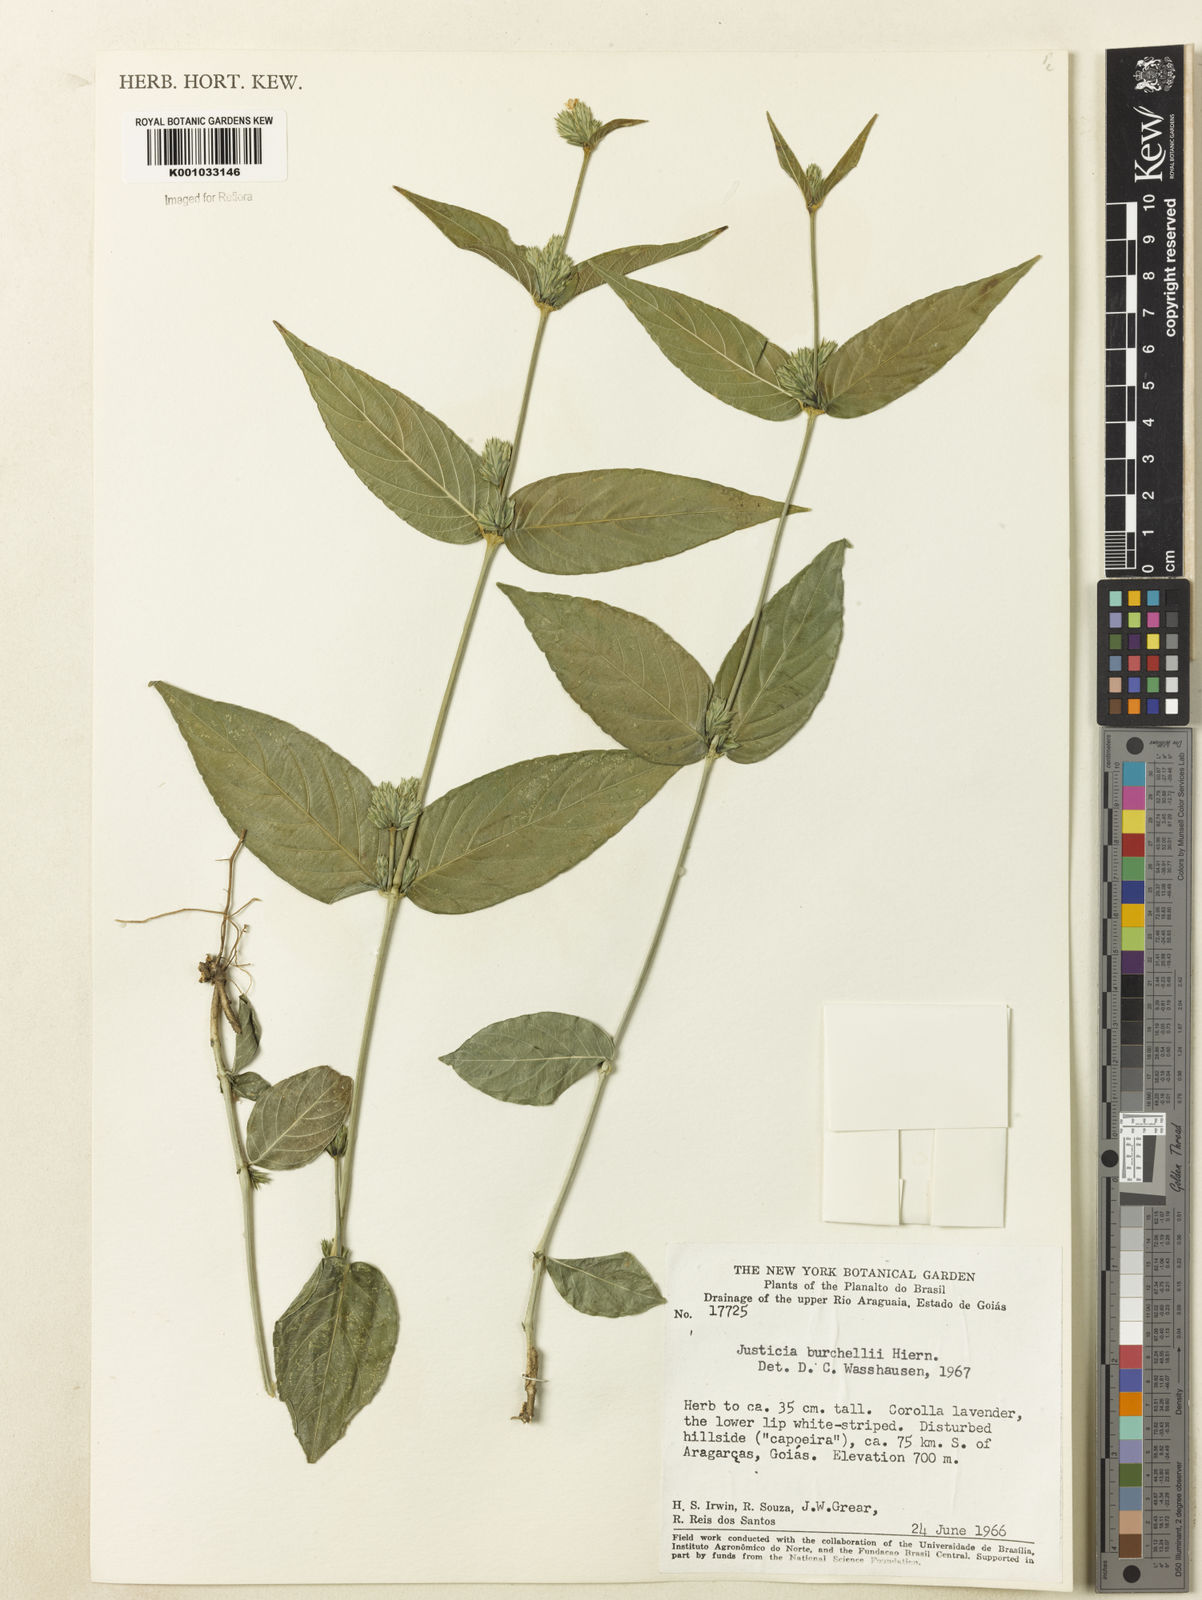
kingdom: Plantae
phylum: Tracheophyta
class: Magnoliopsida
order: Lamiales
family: Acanthaceae
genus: Justicia
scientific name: Justicia burchellii
